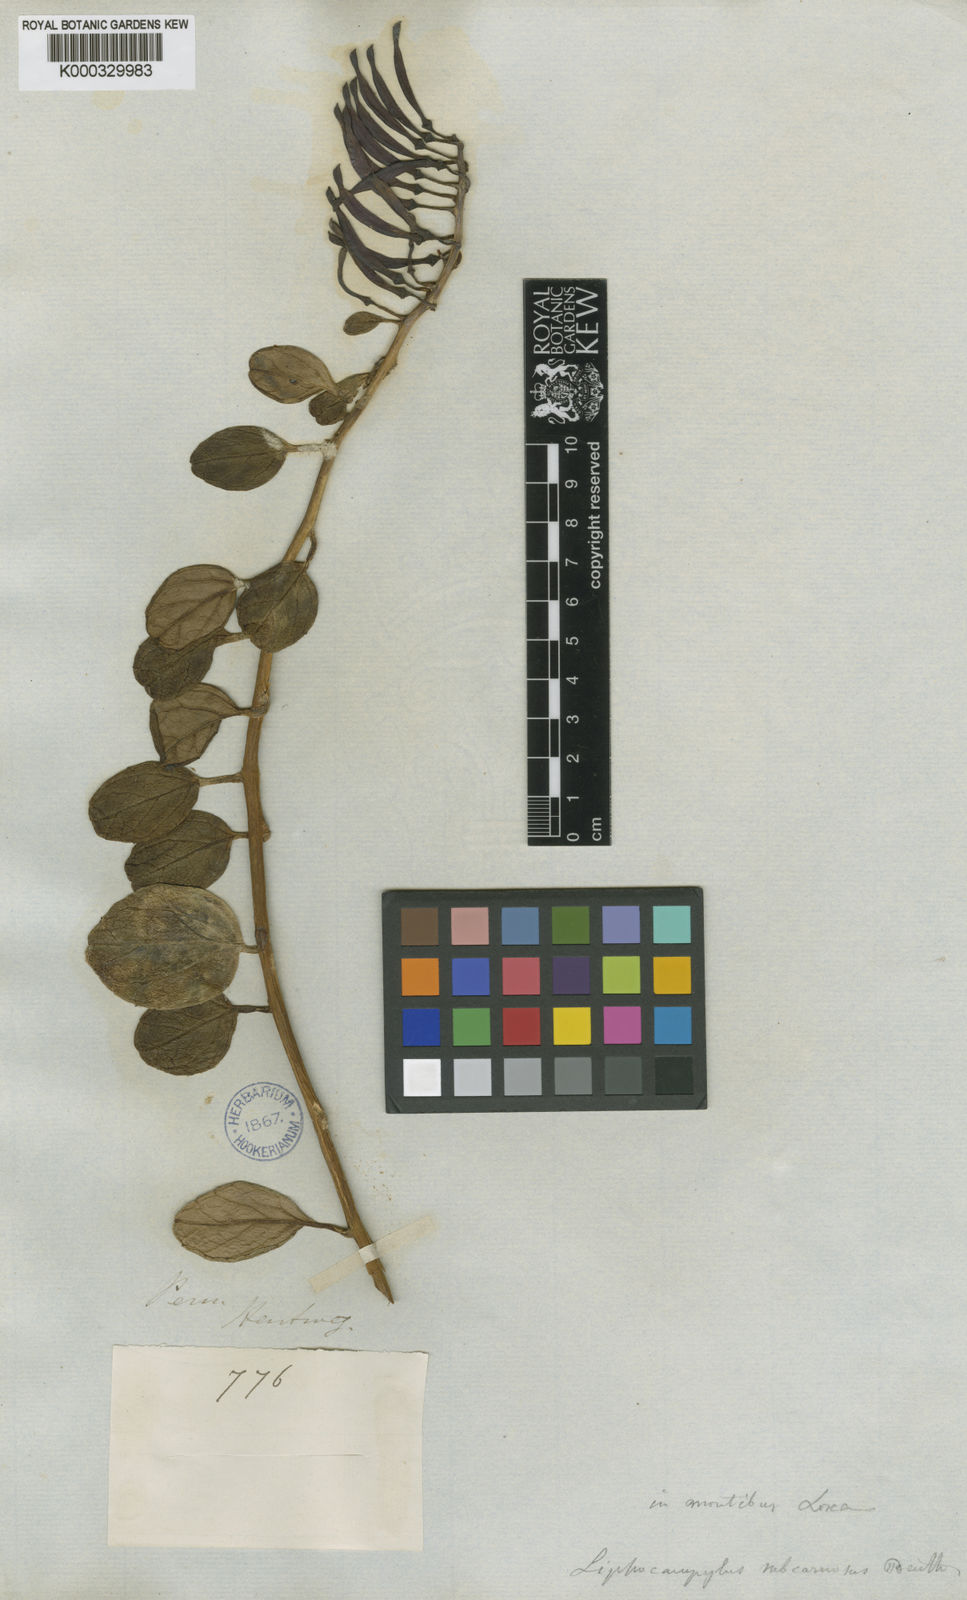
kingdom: Plantae
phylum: Tracheophyta
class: Magnoliopsida
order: Asterales
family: Campanulaceae
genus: Siphocampylus
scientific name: Siphocampylus scandens
